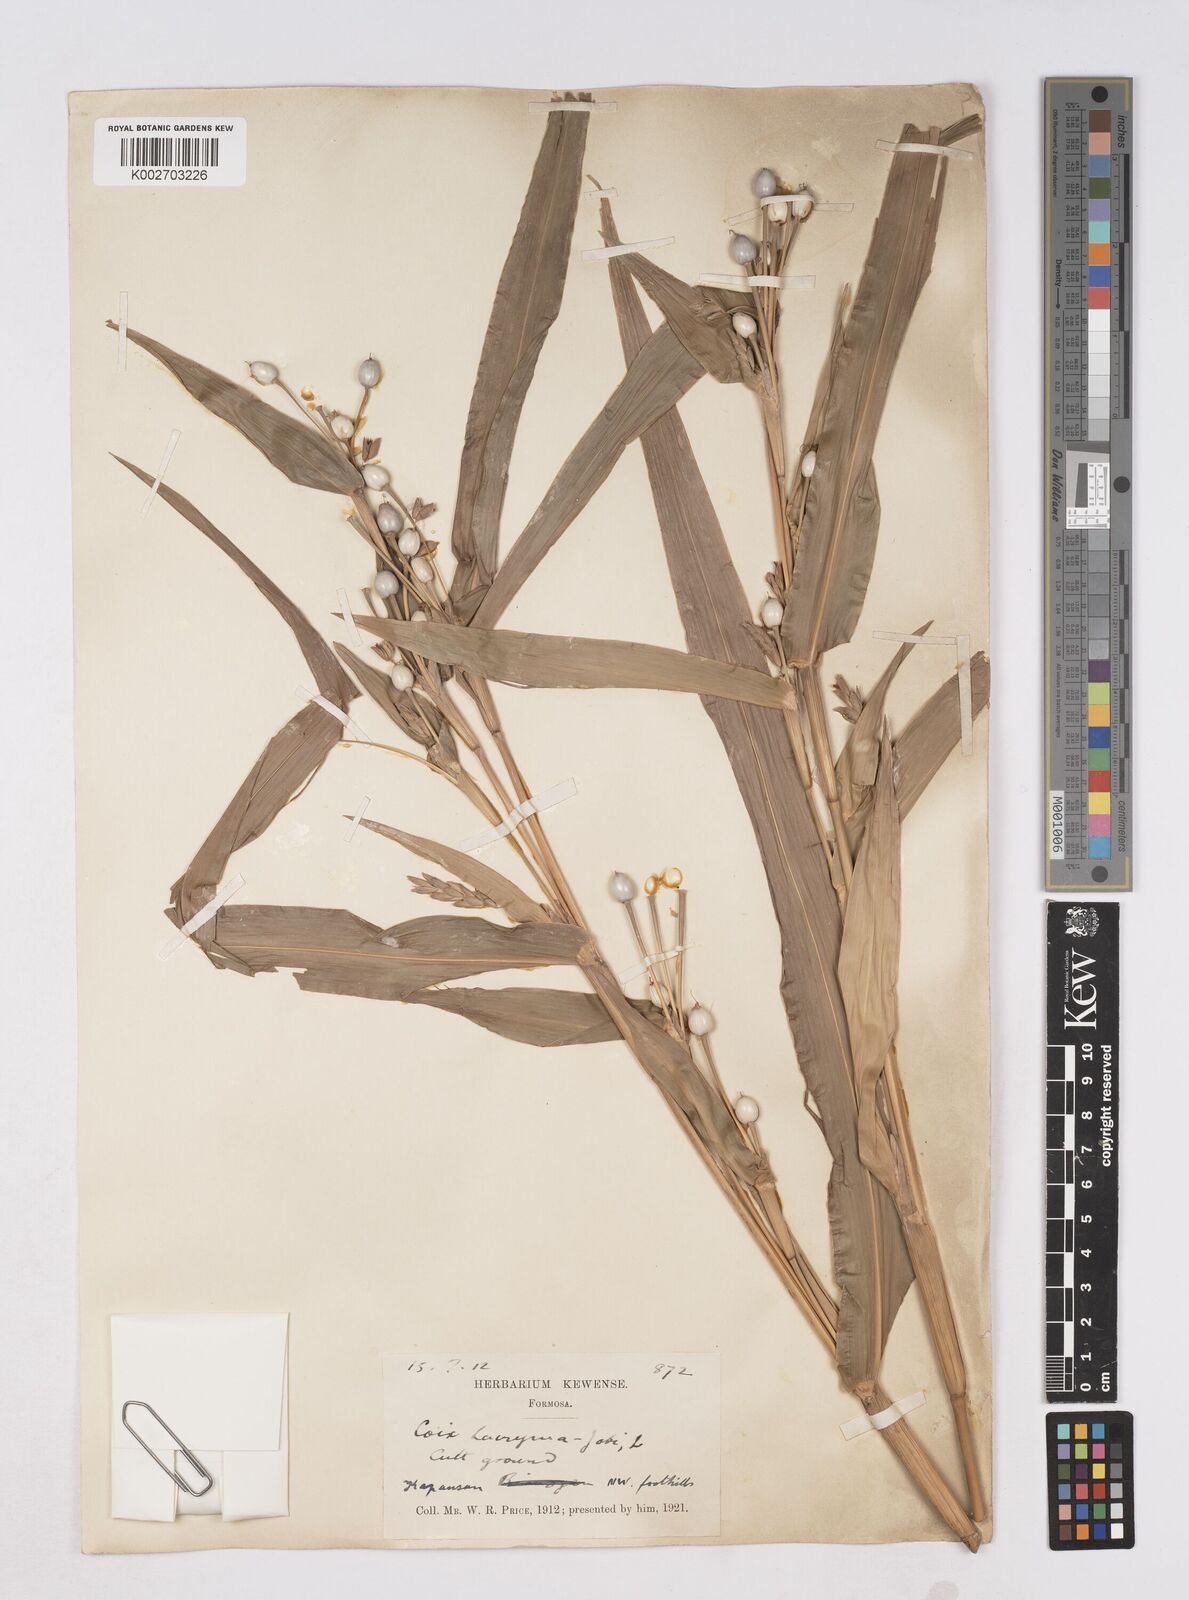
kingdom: Plantae
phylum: Tracheophyta
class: Liliopsida
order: Poales
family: Poaceae
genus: Coix
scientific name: Coix lacryma-jobi
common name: Job's tears
